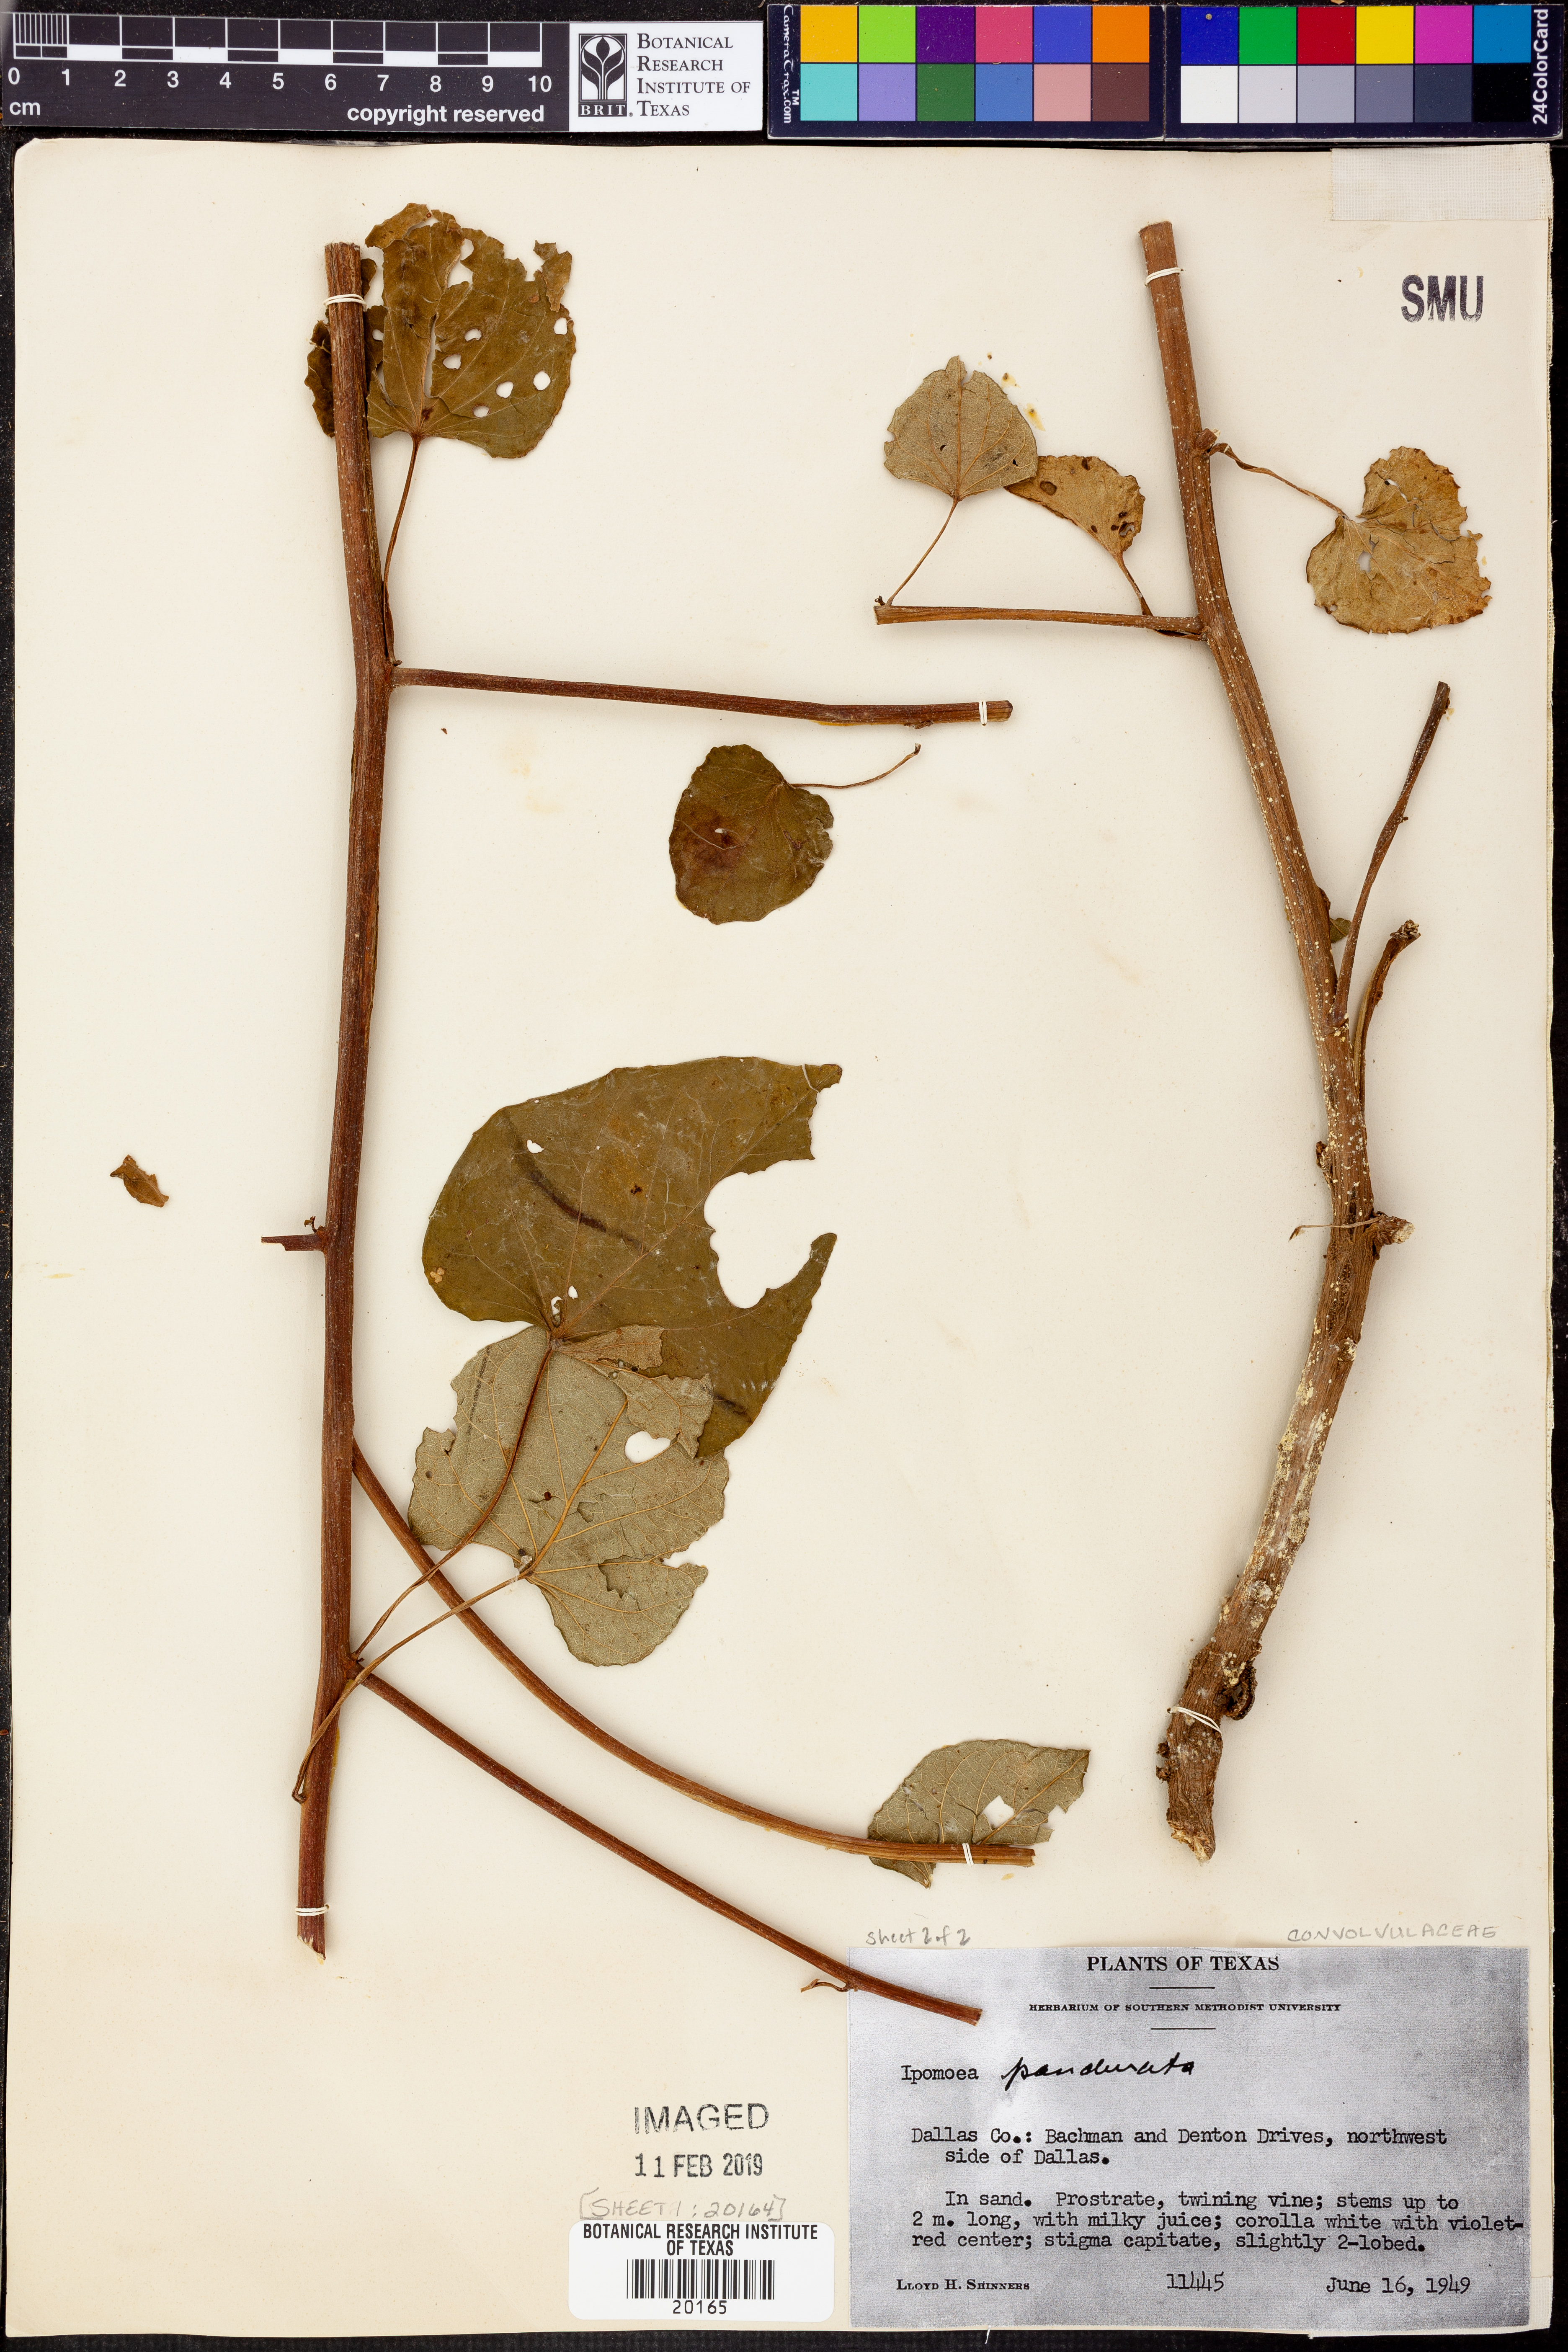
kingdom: Plantae
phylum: Tracheophyta
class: Magnoliopsida
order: Solanales
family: Convolvulaceae
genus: Ipomoea
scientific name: Ipomoea pandurata
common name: Man-of-the-earth
